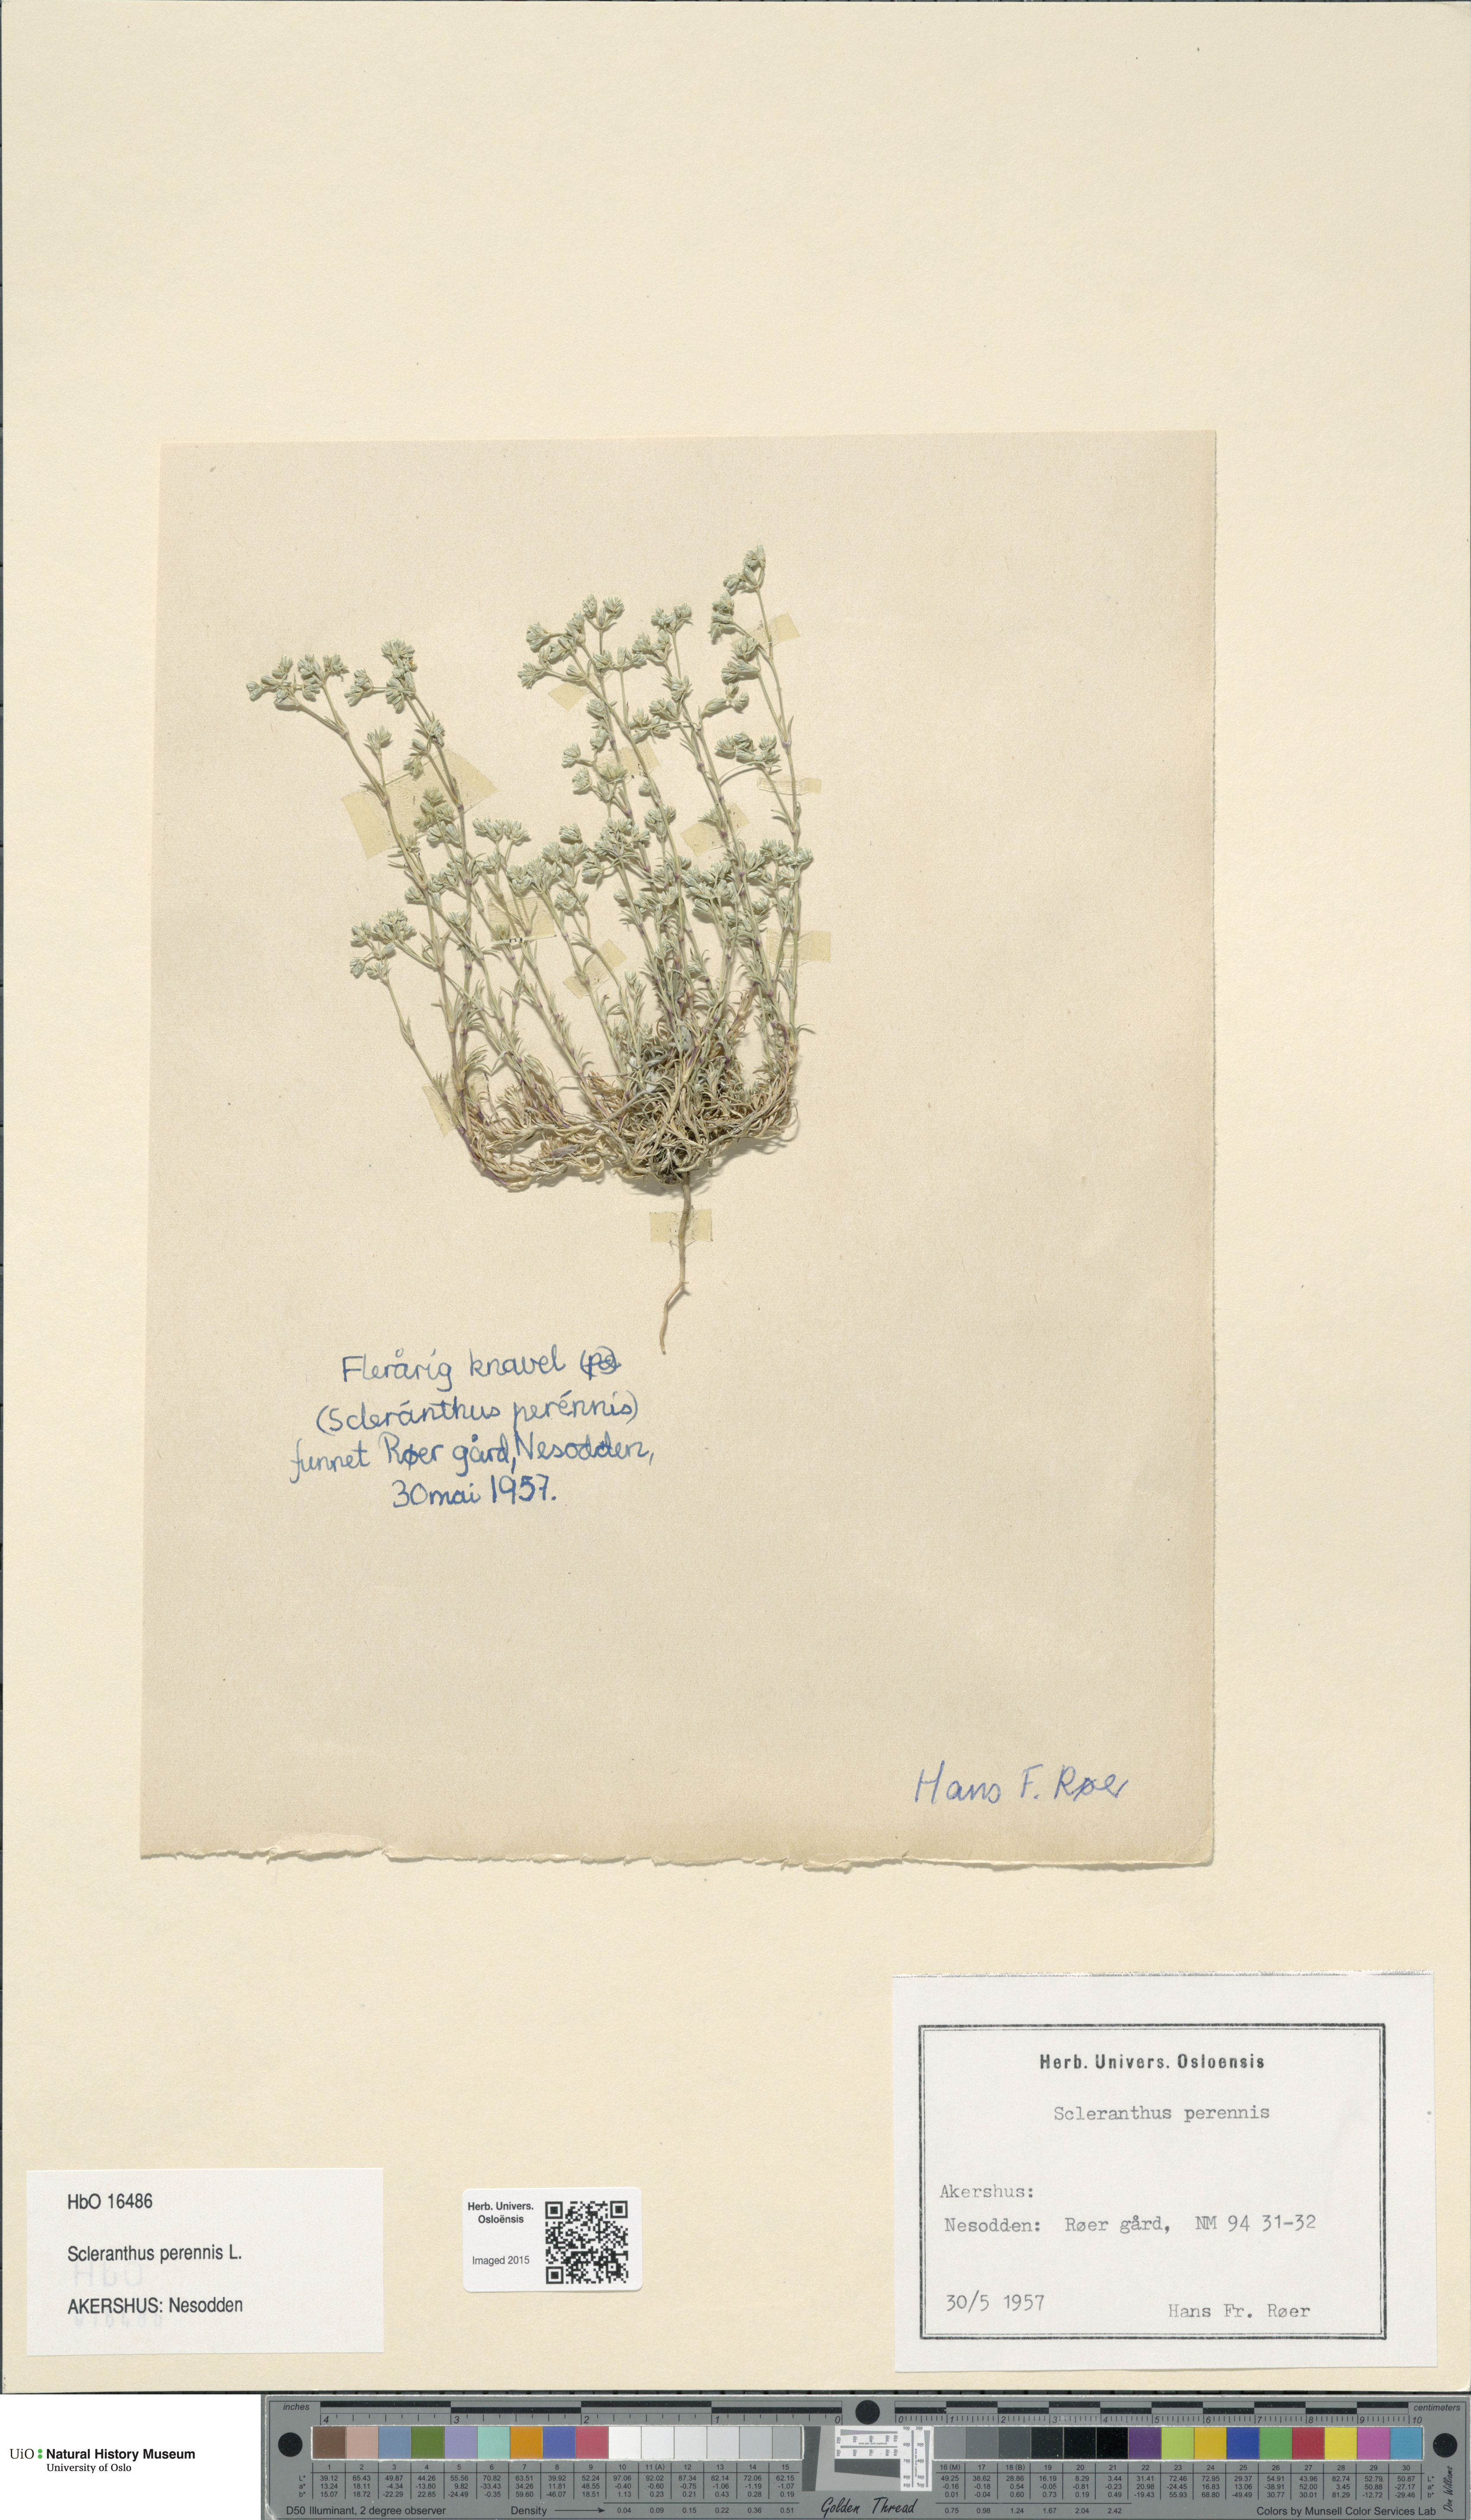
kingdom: Plantae
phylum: Tracheophyta
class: Magnoliopsida
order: Caryophyllales
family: Caryophyllaceae
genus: Scleranthus
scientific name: Scleranthus perennis
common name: Perennial knawel
